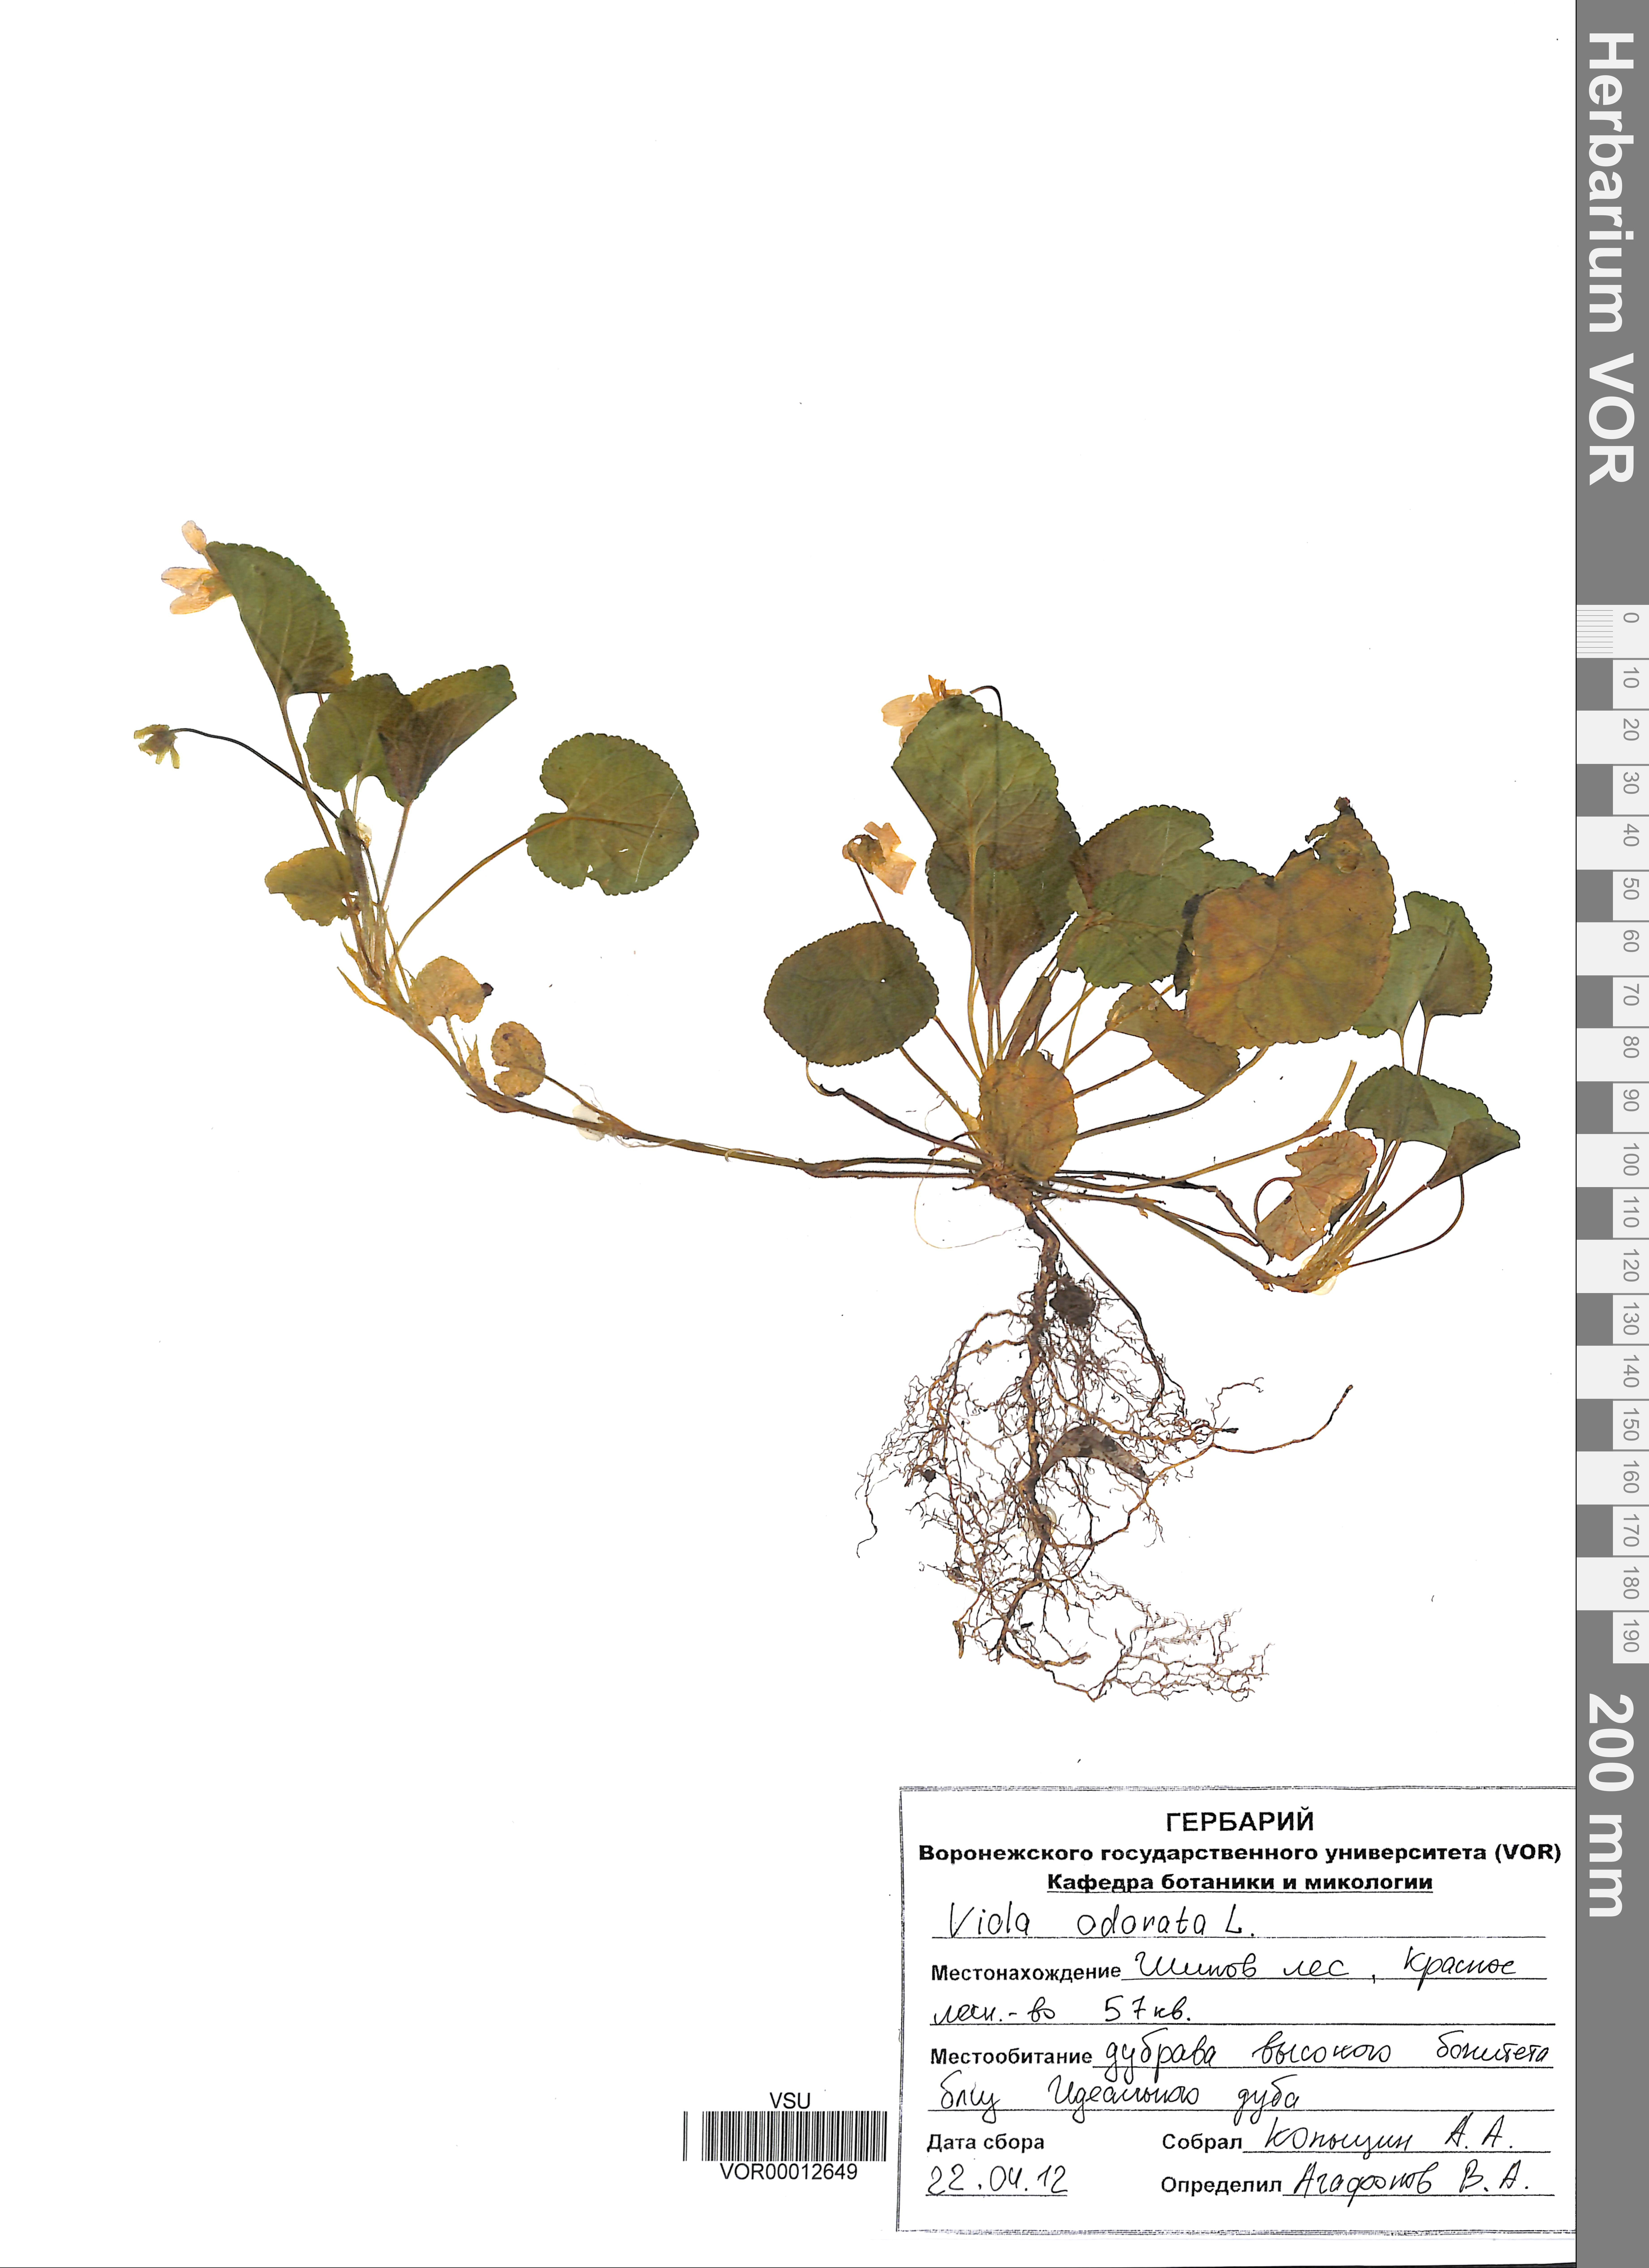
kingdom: Plantae
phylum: Tracheophyta
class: Magnoliopsida
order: Malpighiales
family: Violaceae
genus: Viola
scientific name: Viola odorata
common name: Sweet violet
